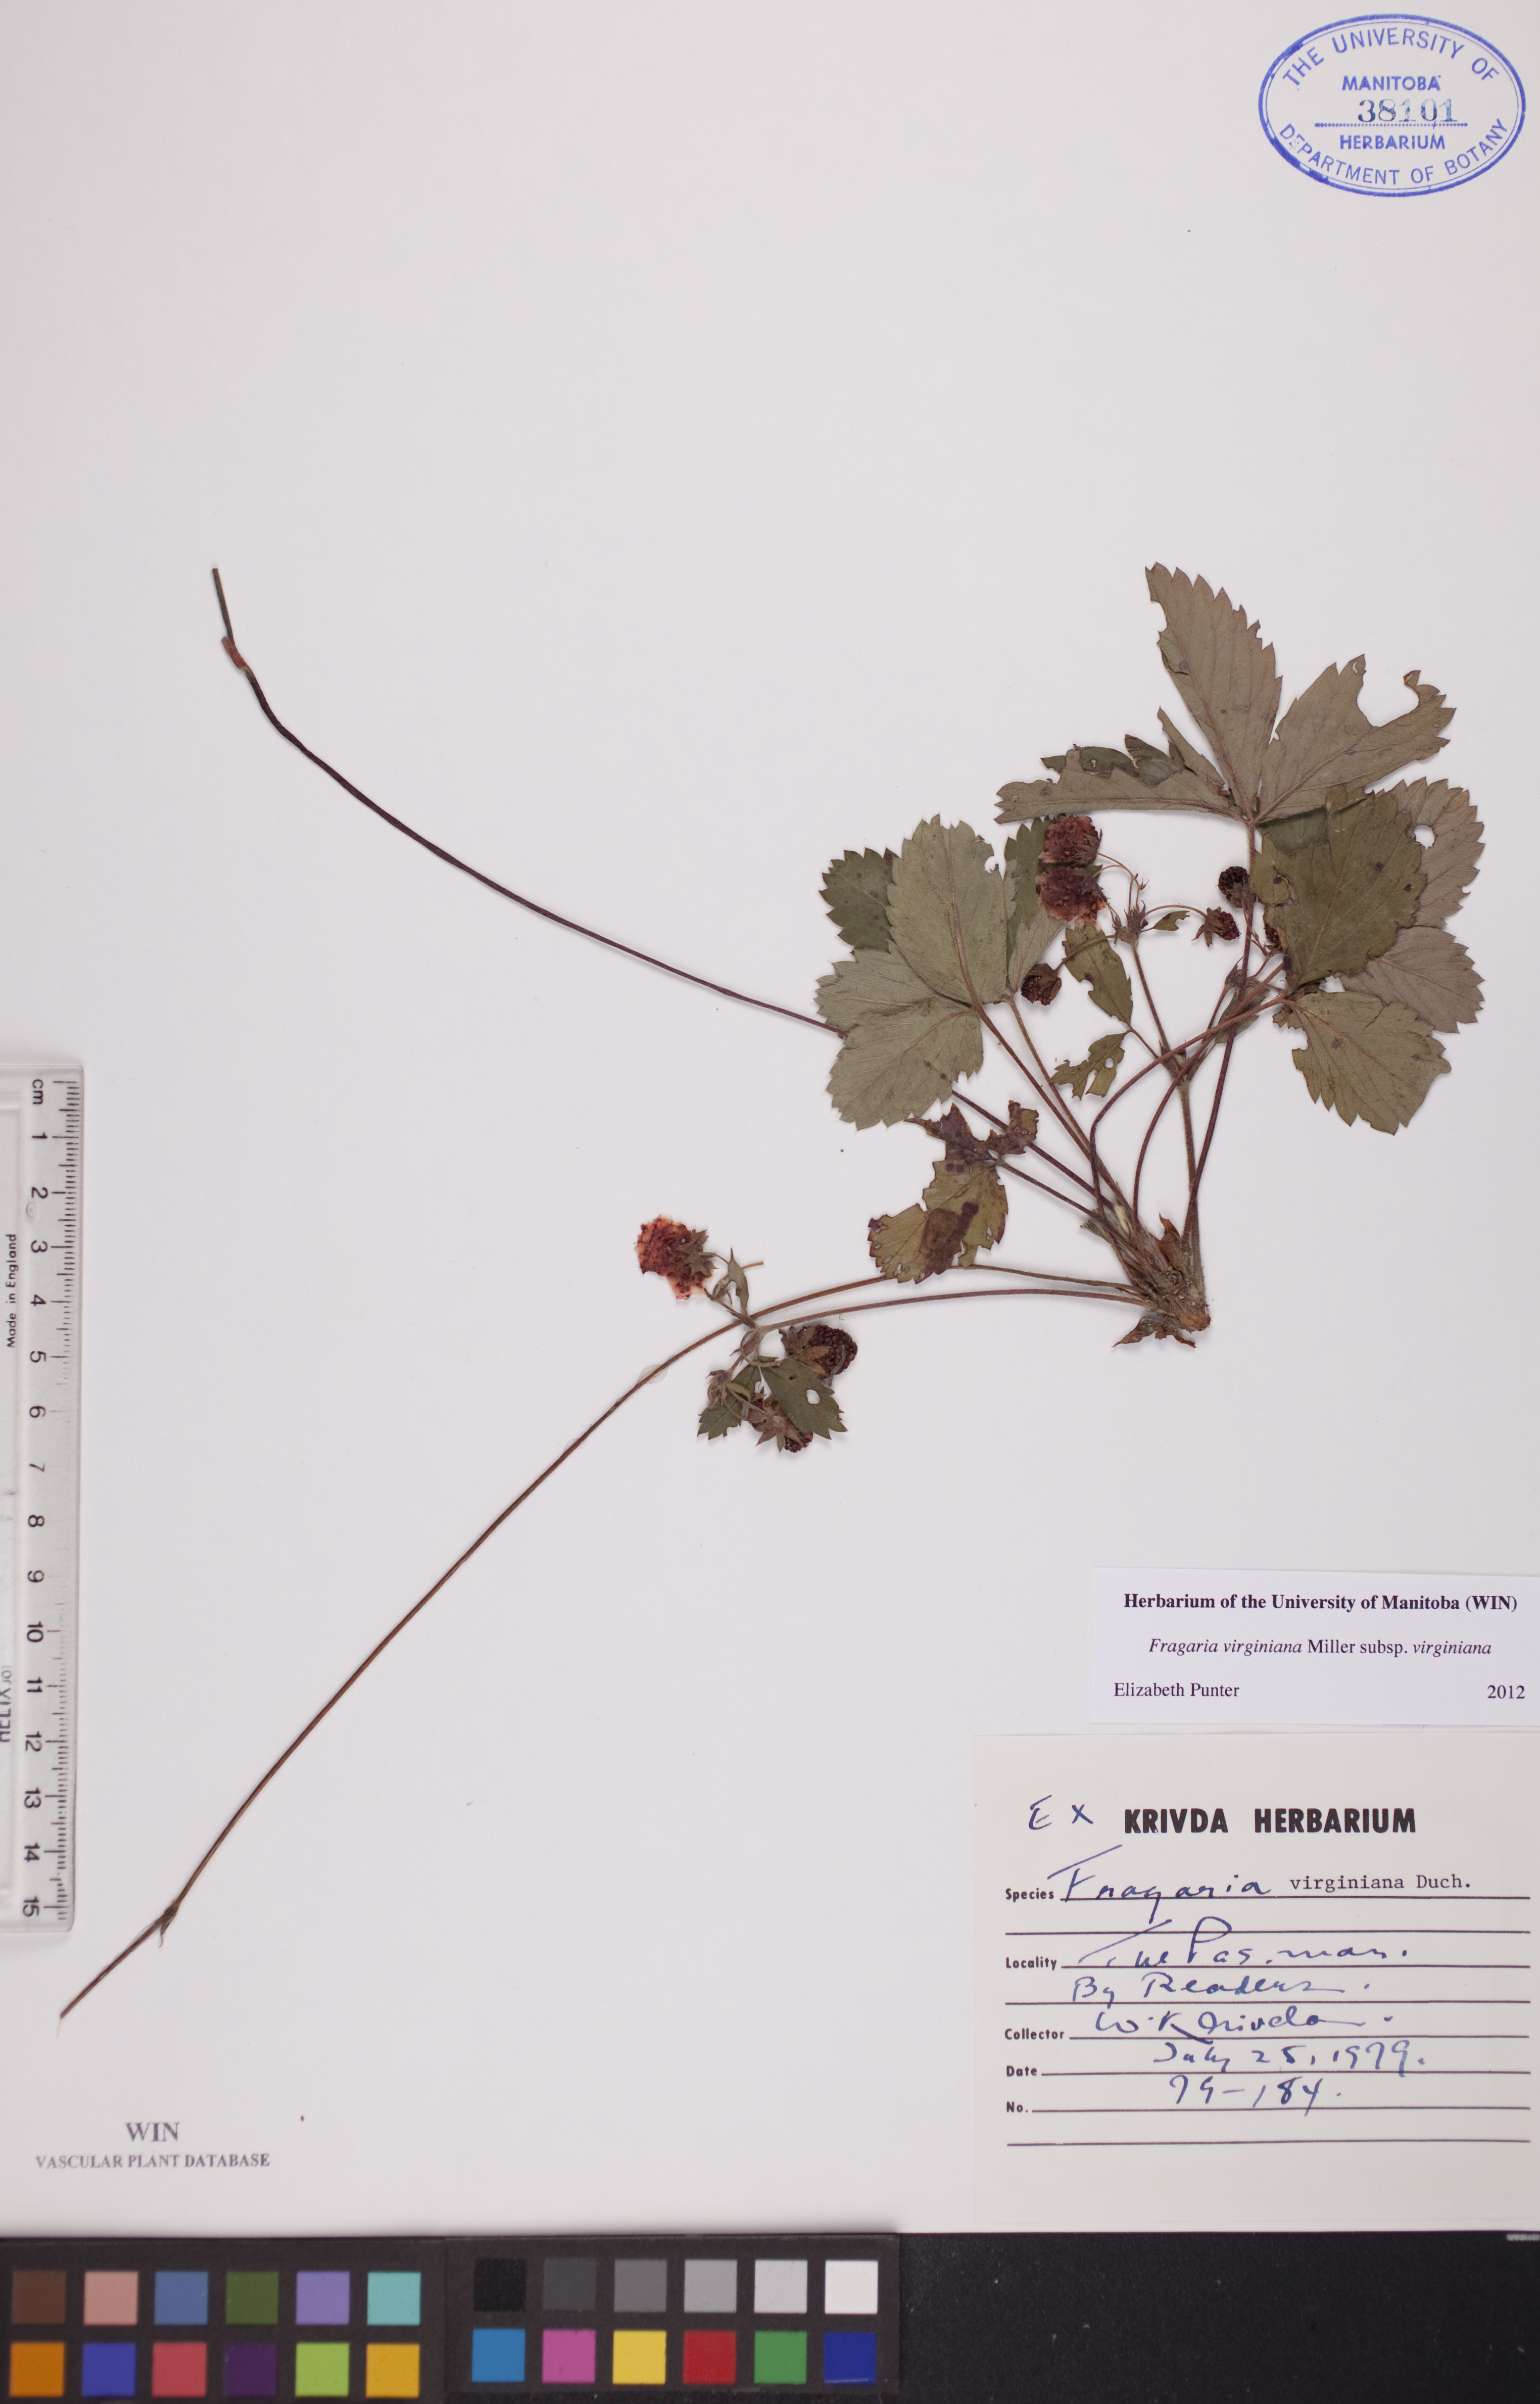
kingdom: Plantae
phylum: Tracheophyta
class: Magnoliopsida
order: Rosales
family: Rosaceae
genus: Fragaria
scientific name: Fragaria virginiana
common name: Thickleaved wild strawberry
